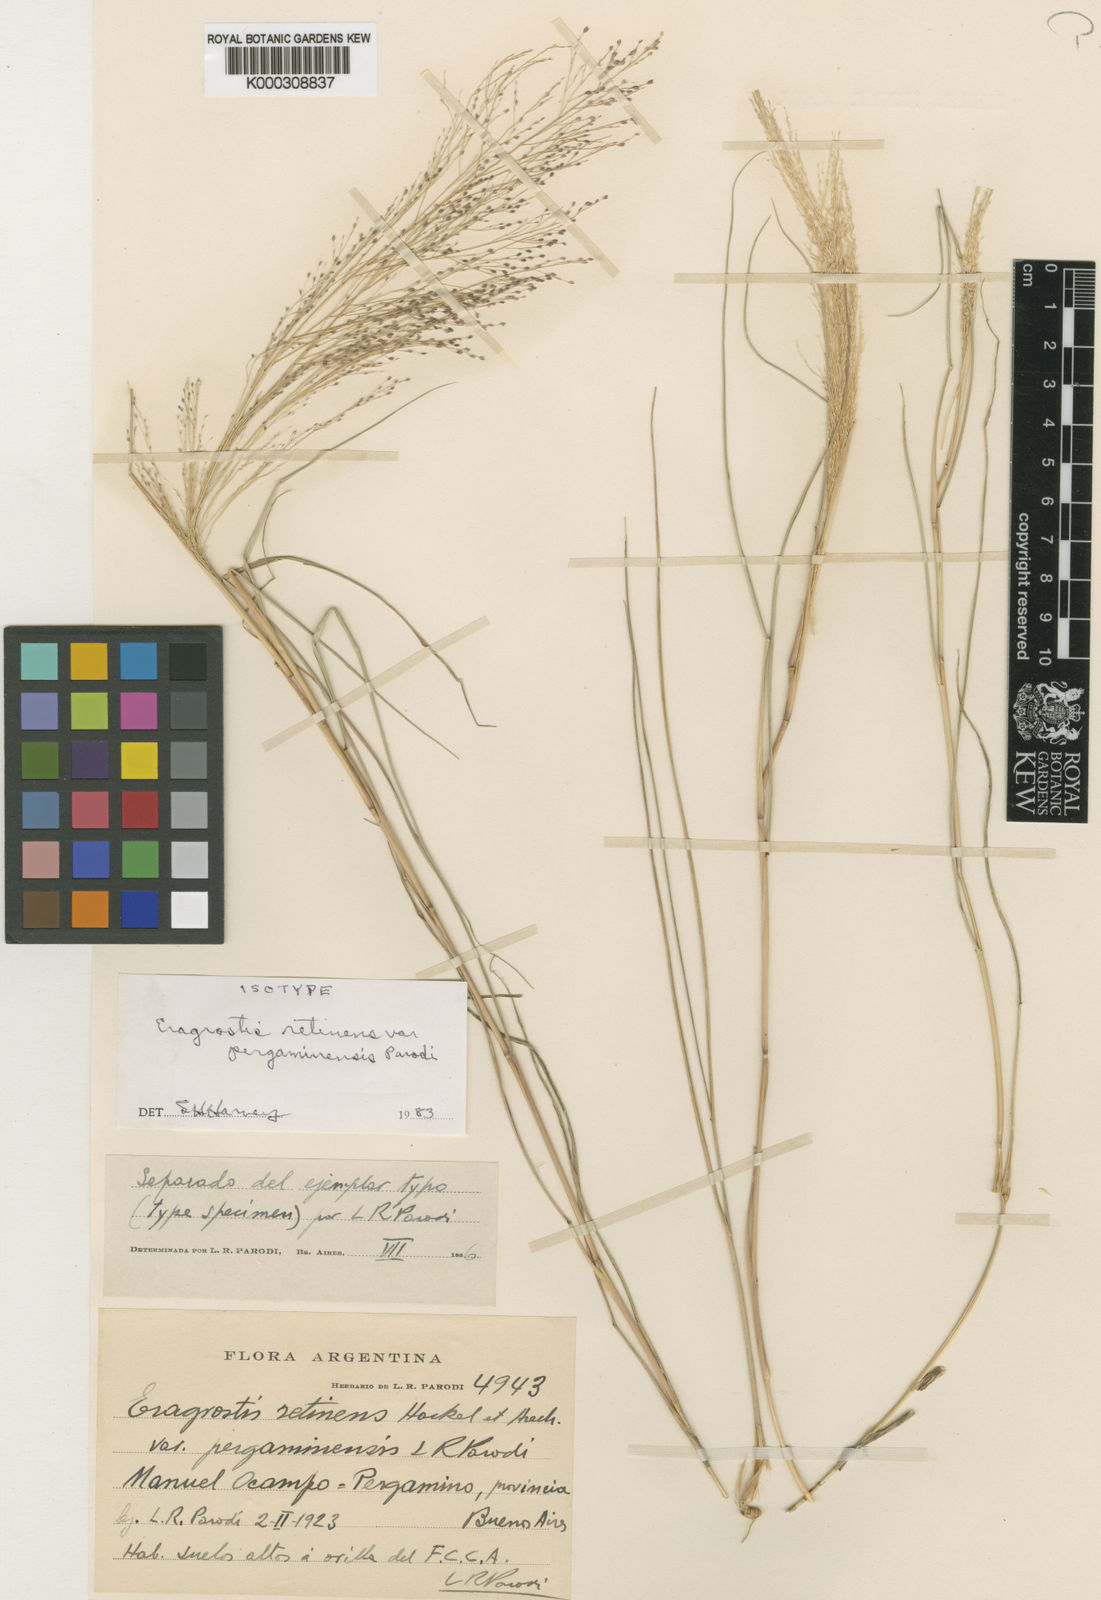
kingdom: Plantae
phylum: Tracheophyta
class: Liliopsida
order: Poales
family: Poaceae
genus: Eragrostis
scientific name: Eragrostis retinens
